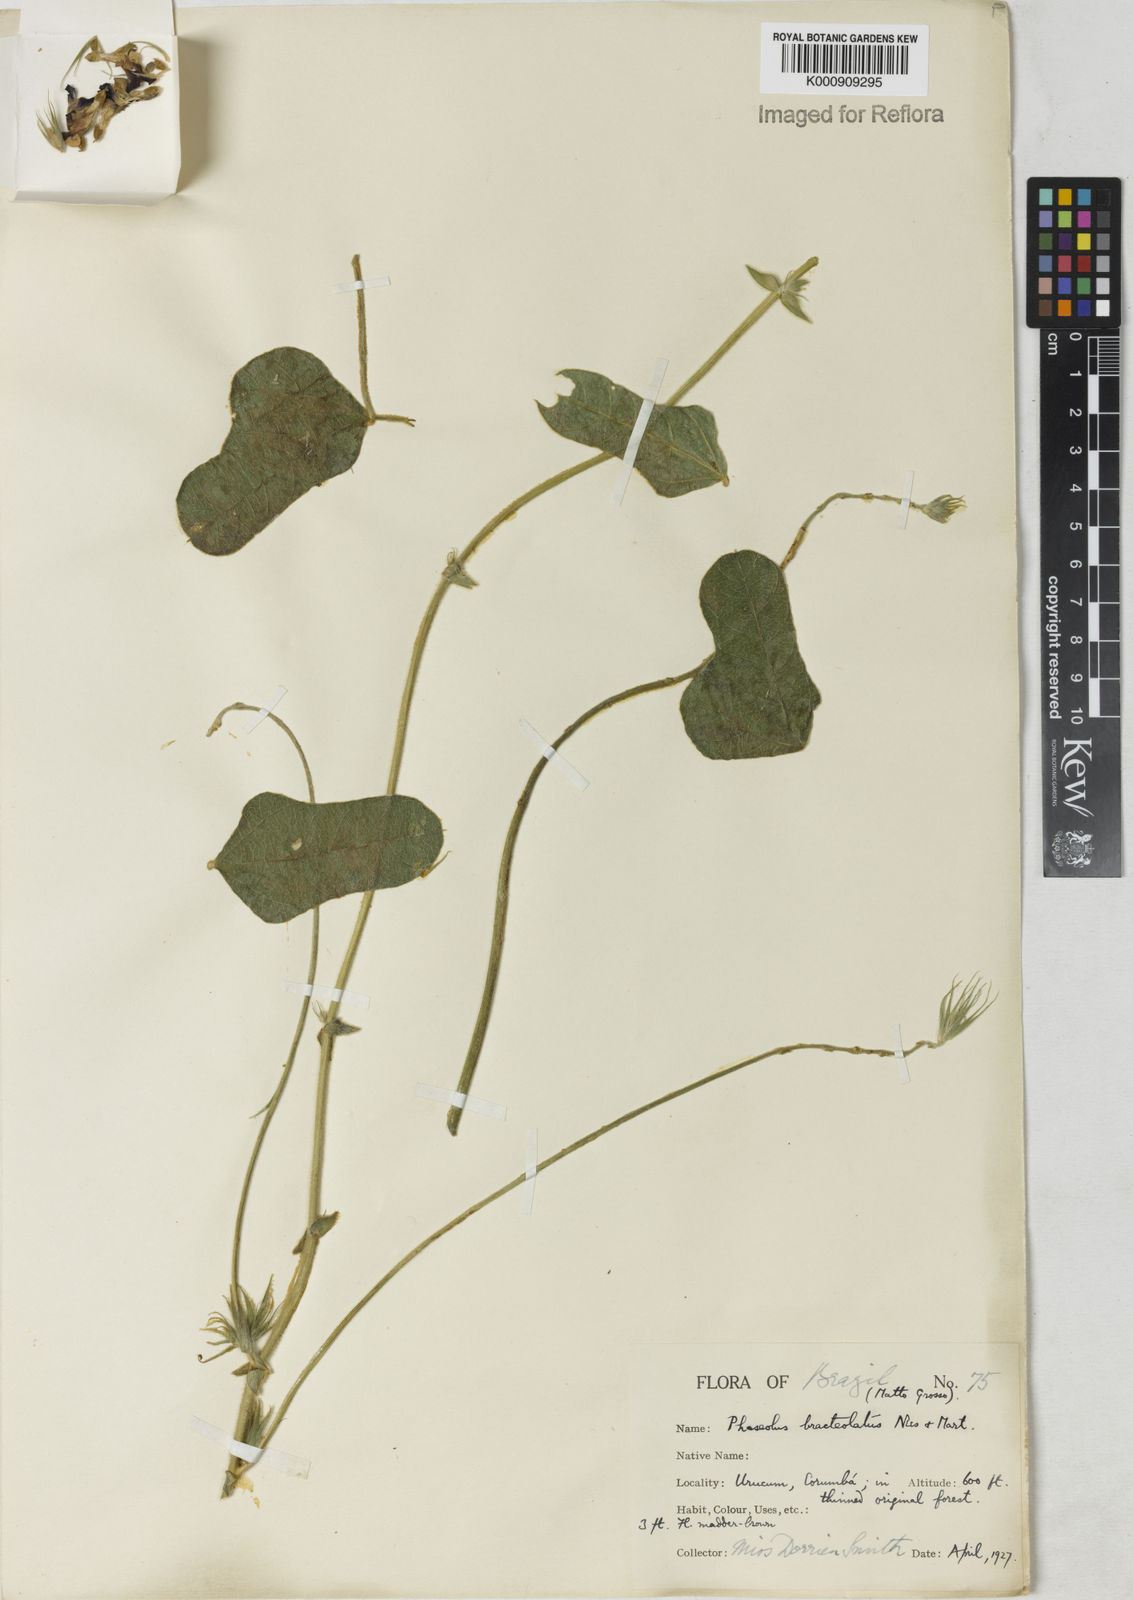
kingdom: Plantae
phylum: Tracheophyta
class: Magnoliopsida
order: Fabales
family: Fabaceae
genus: Macroptilium
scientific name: Macroptilium
